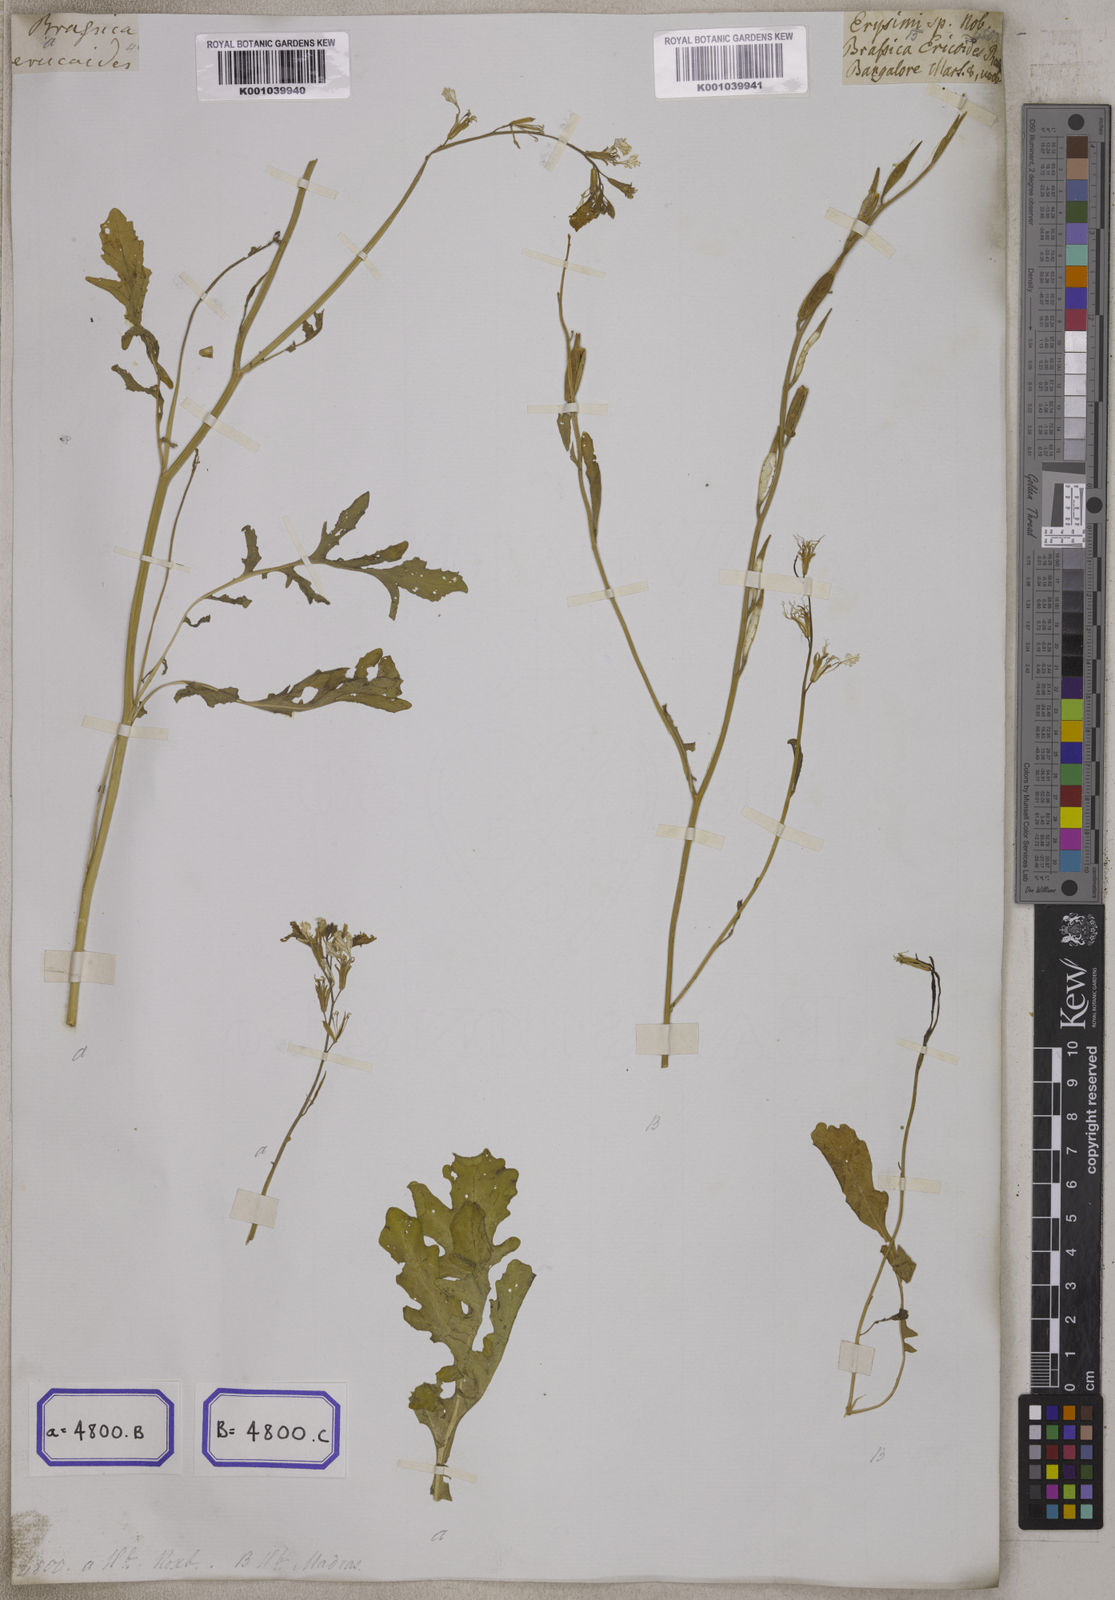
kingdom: Plantae
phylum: Tracheophyta
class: Magnoliopsida
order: Brassicales
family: Brassicaceae
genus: Eruca
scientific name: Eruca
